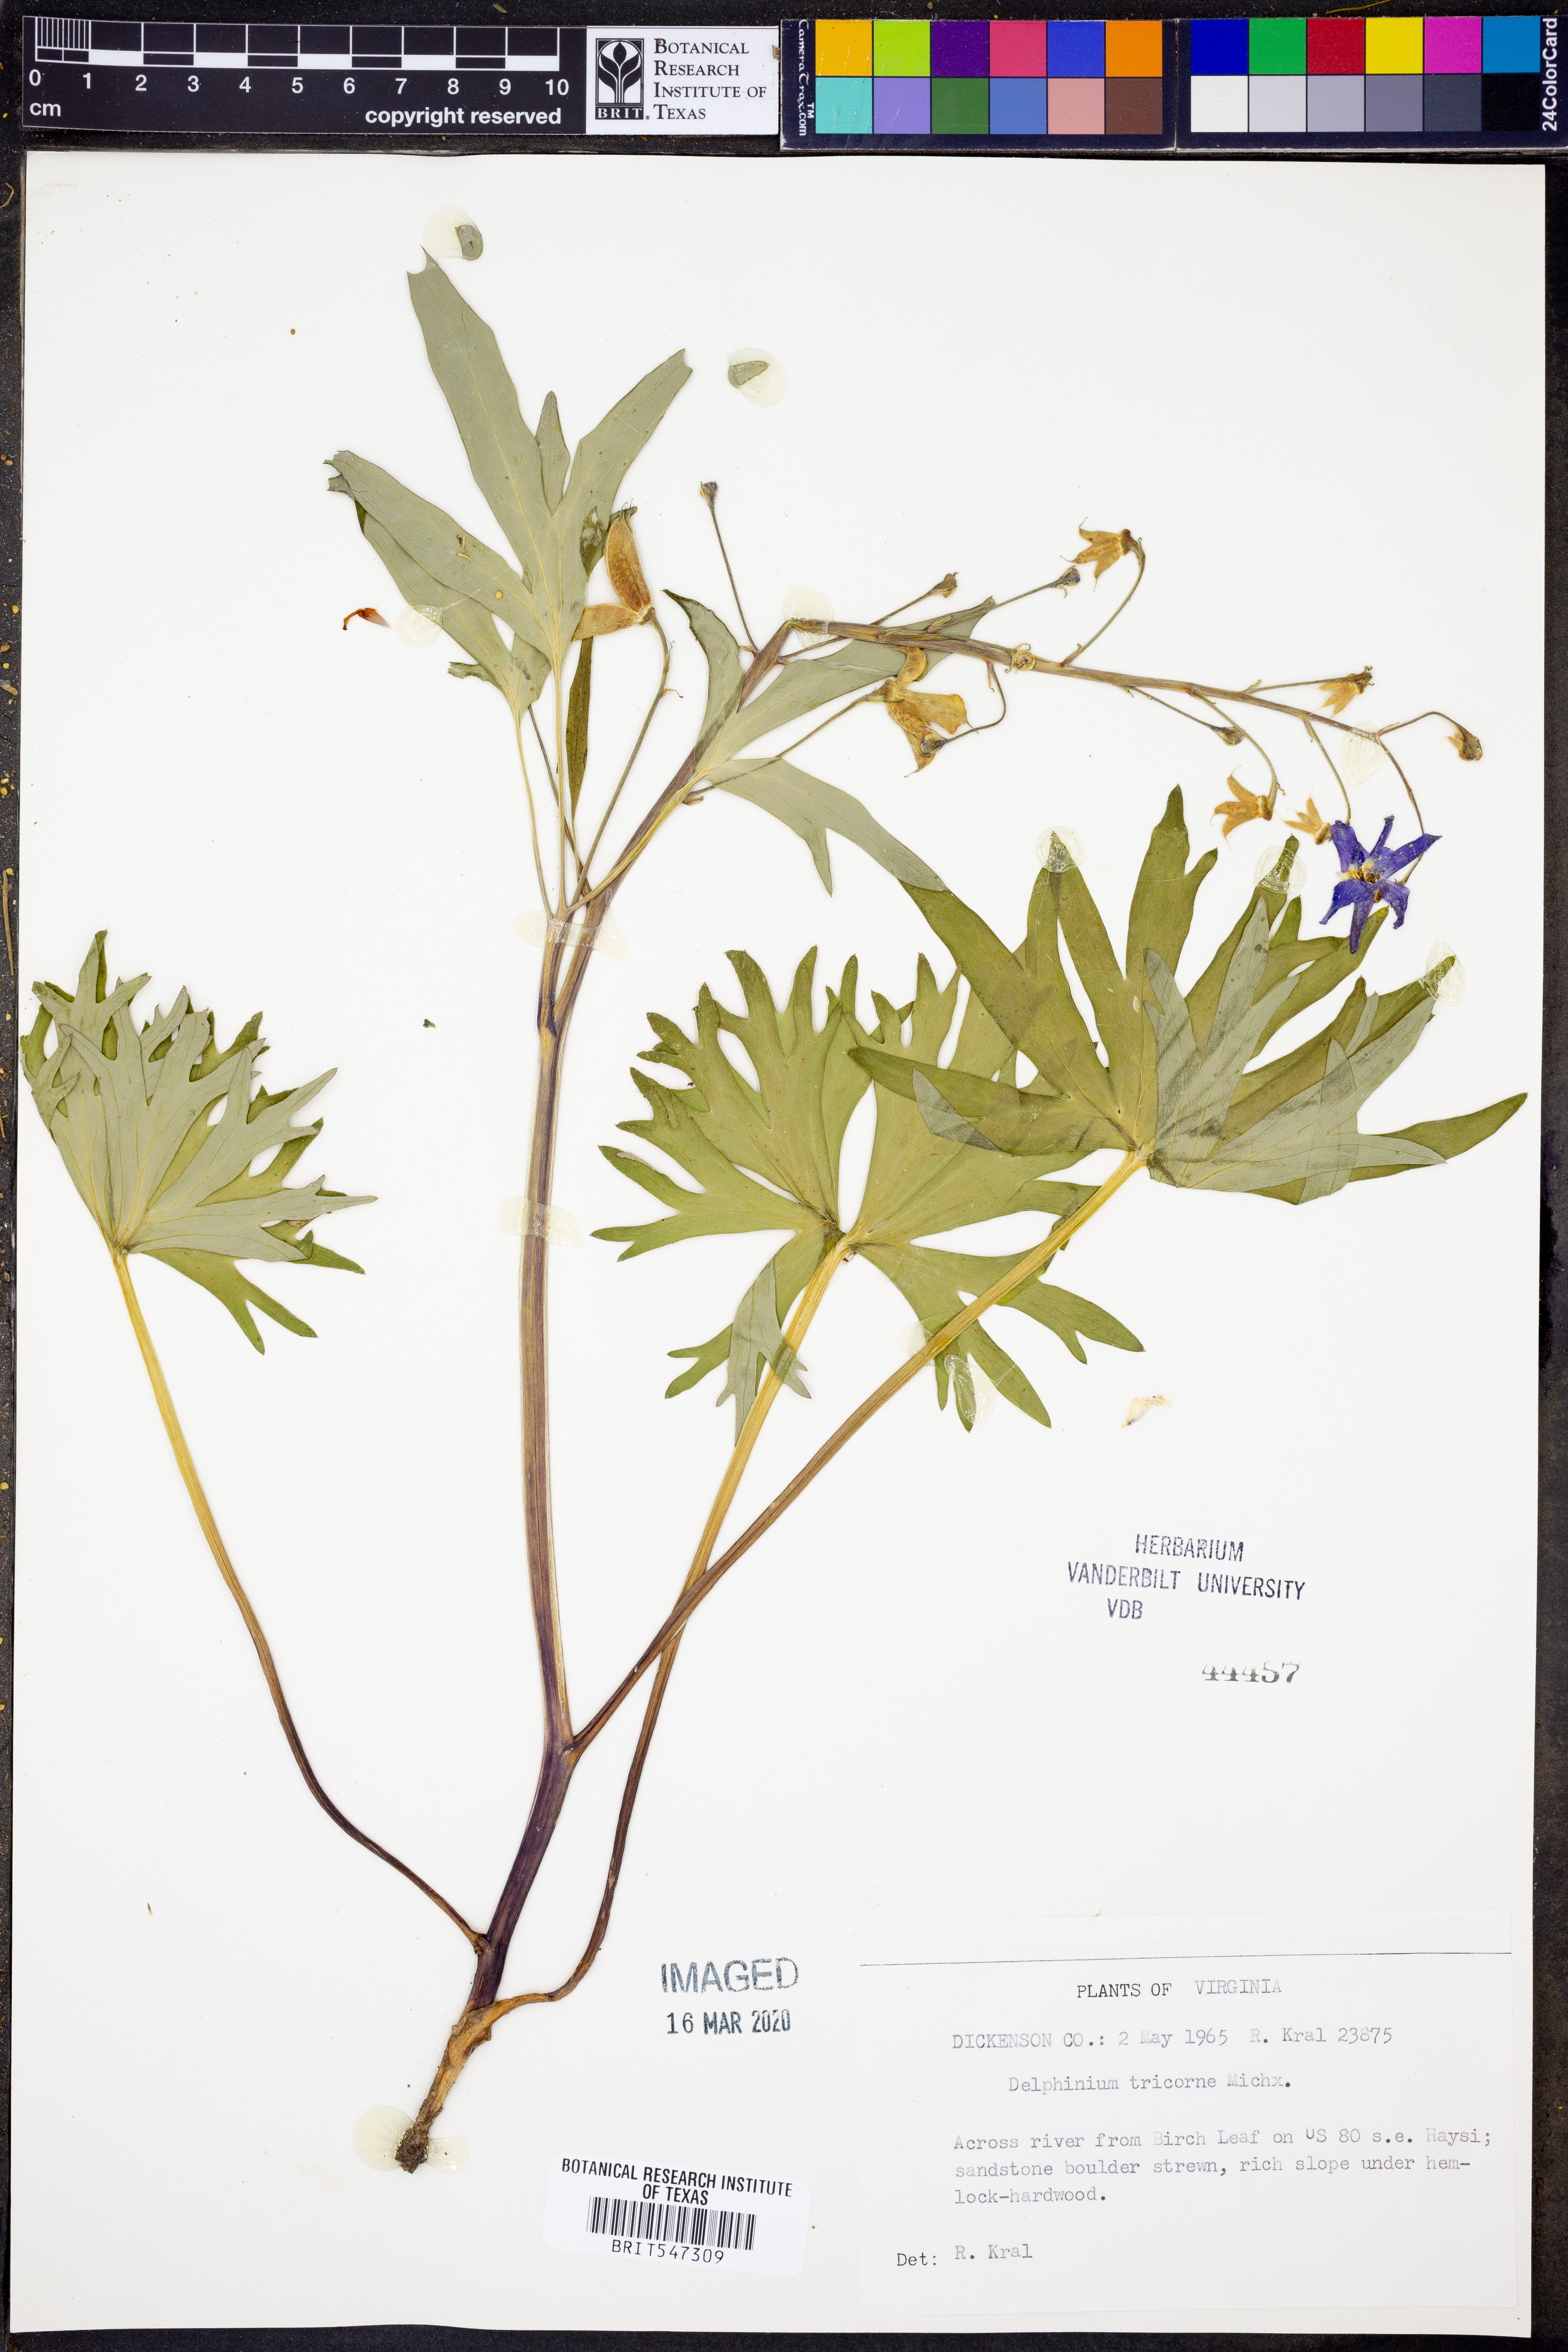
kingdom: Plantae
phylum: Tracheophyta
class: Magnoliopsida
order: Ranunculales
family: Ranunculaceae
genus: Delphinium
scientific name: Delphinium tricorne
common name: Dwarf larkspur
